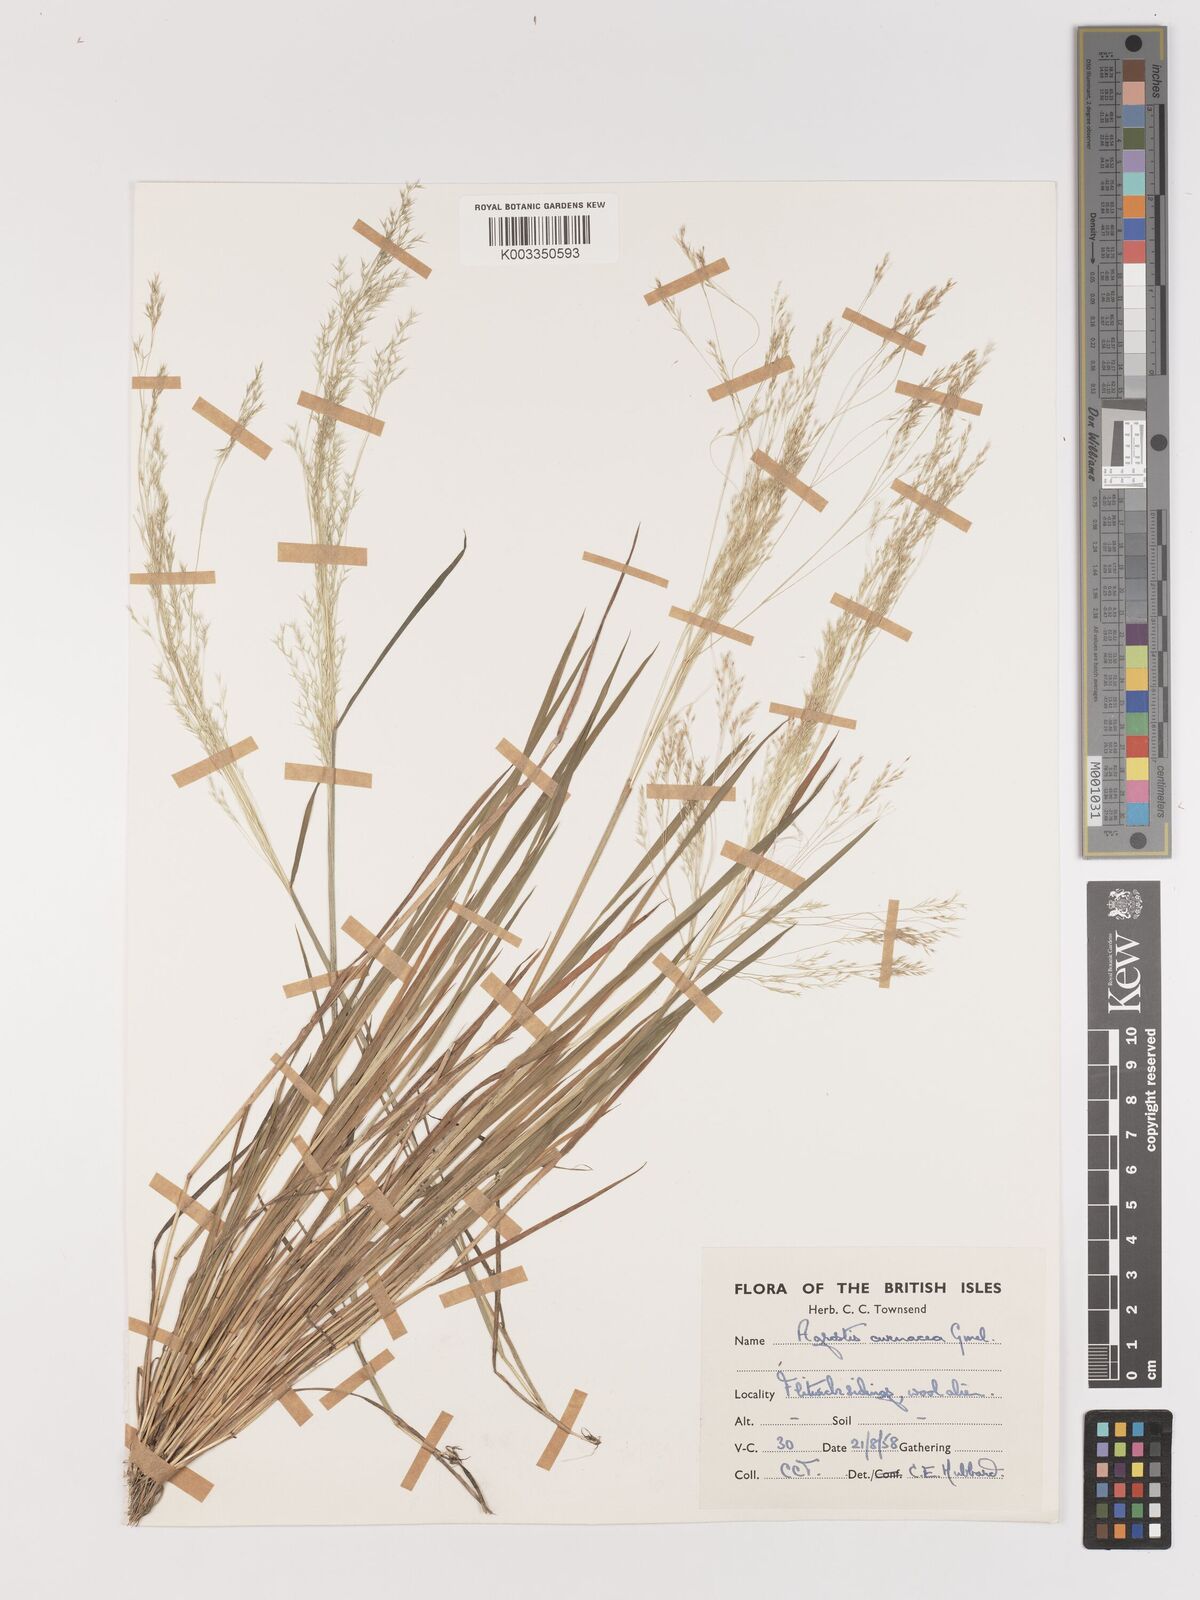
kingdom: Plantae
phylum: Tracheophyta
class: Liliopsida
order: Poales
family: Poaceae
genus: Lachnagrostis
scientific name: Lachnagrostis filiformis
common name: Bentgrass
